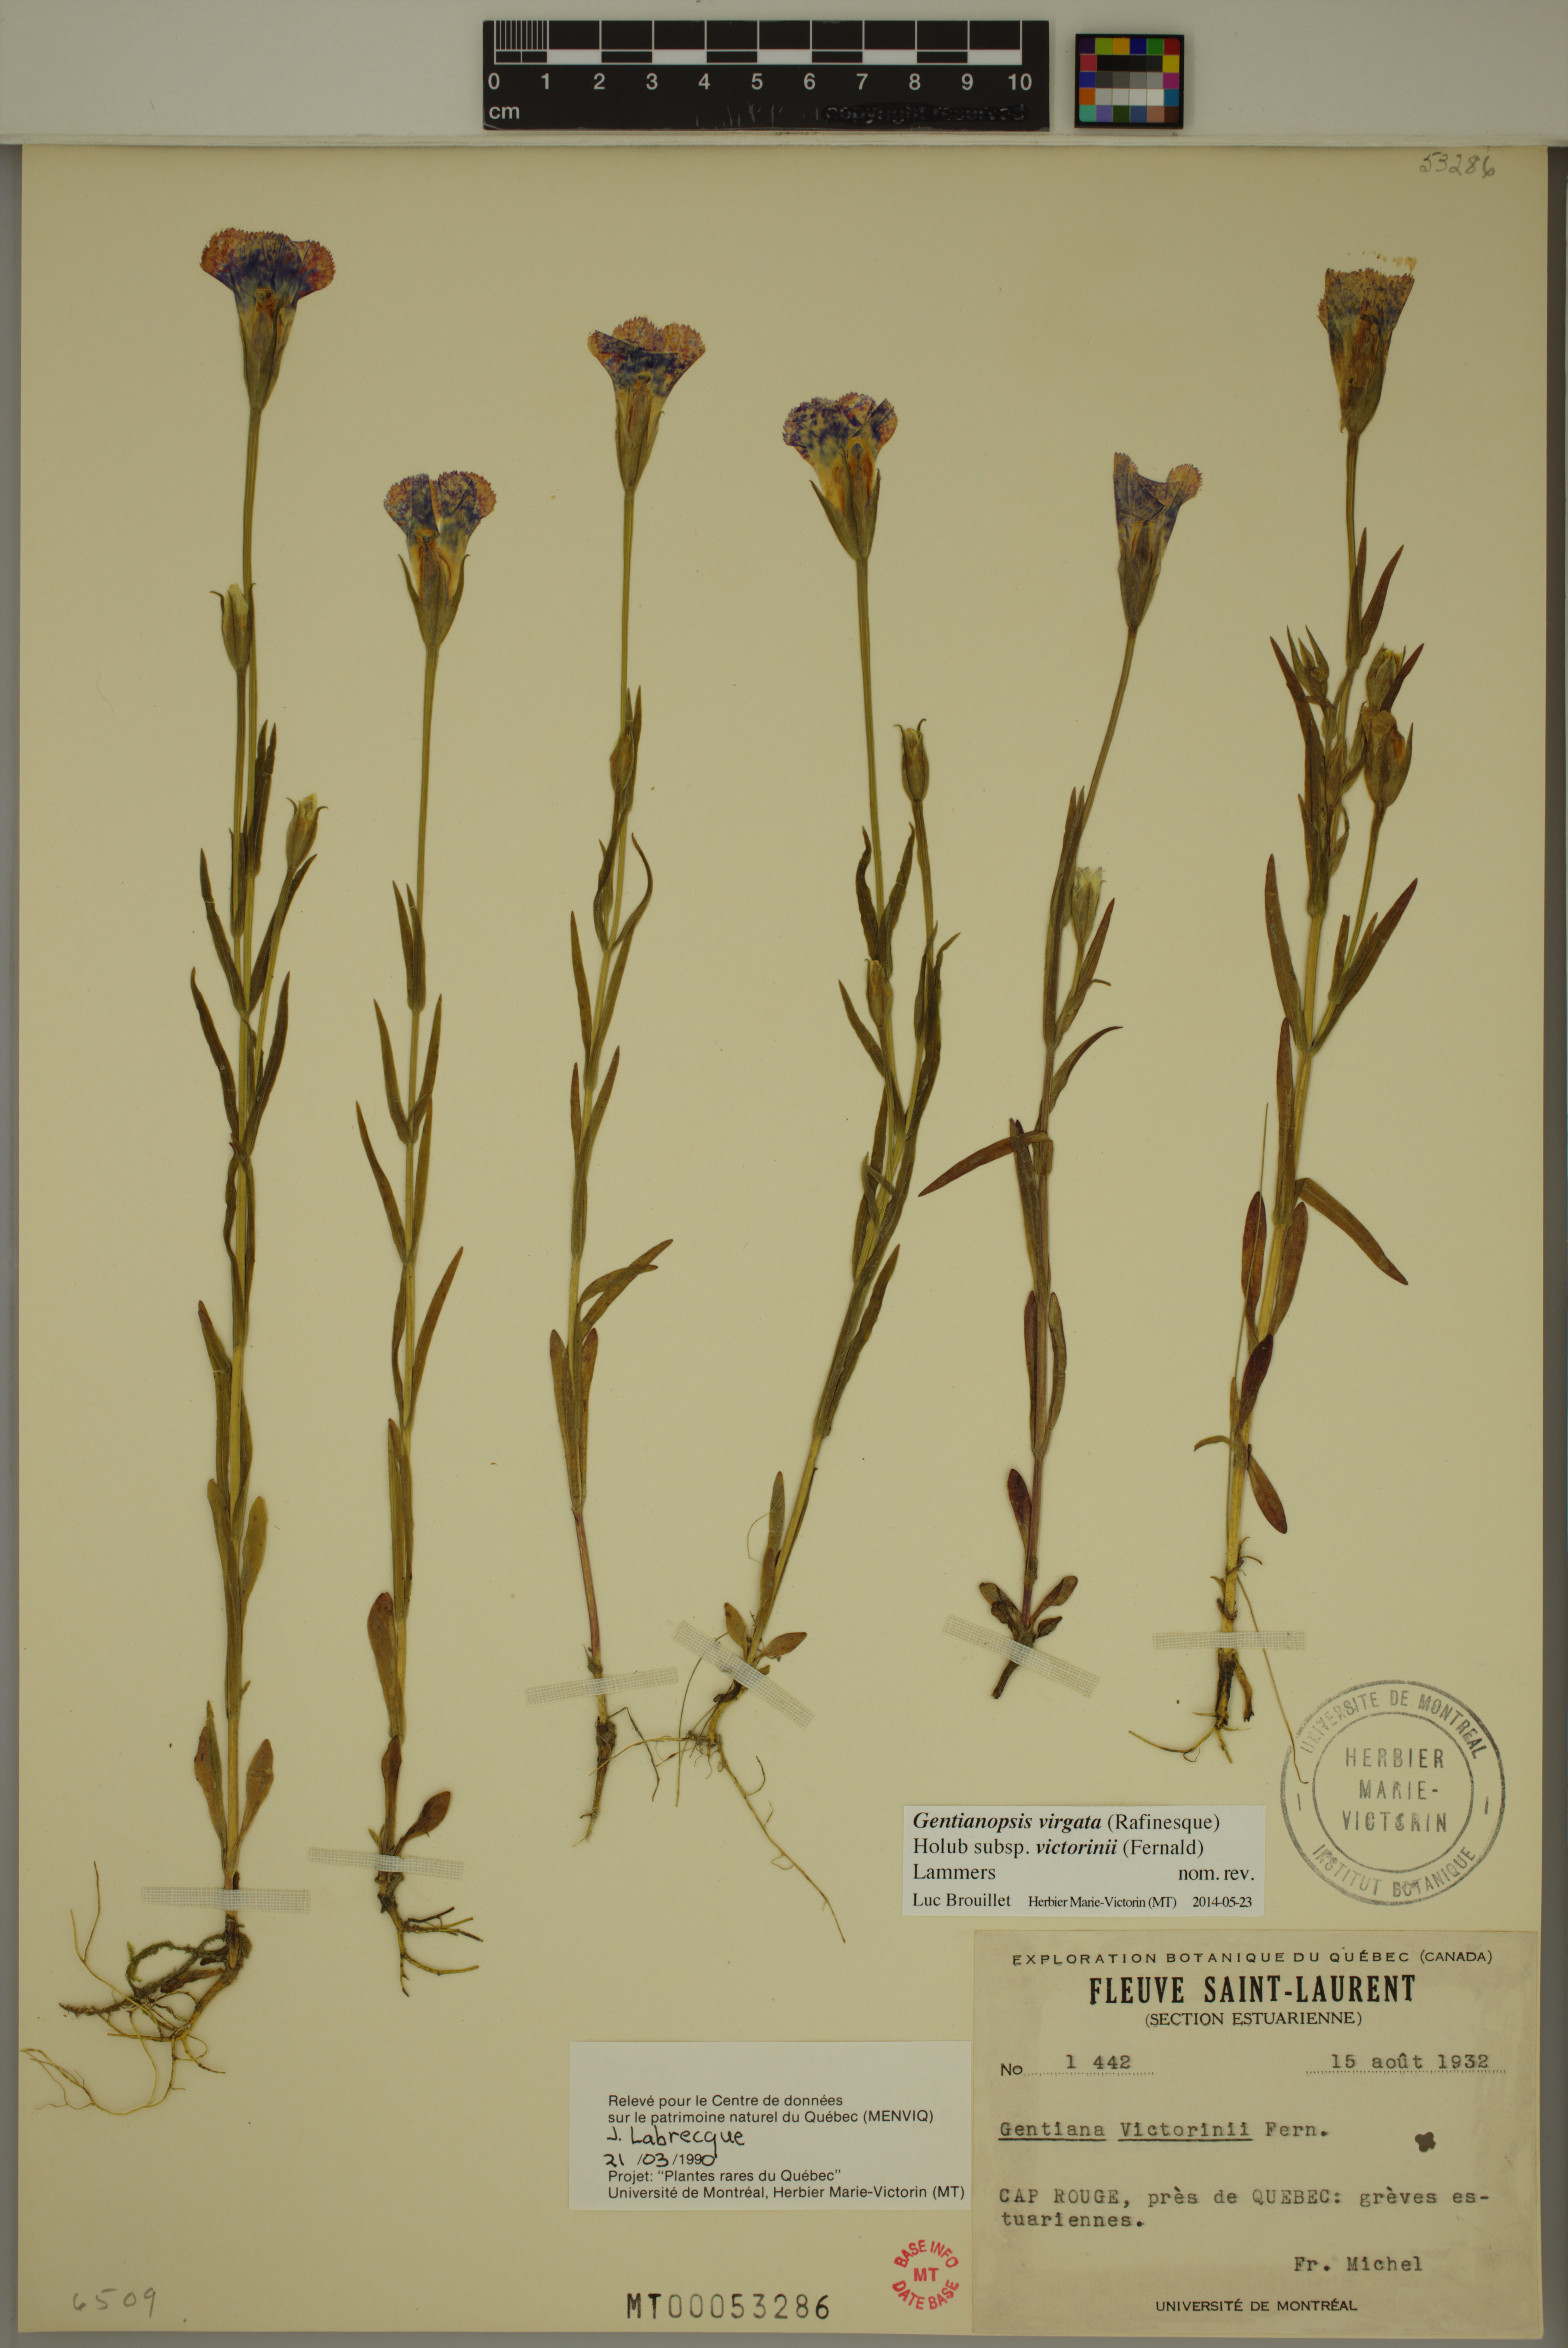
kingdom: Plantae
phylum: Tracheophyta
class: Magnoliopsida
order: Gentianales
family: Gentianaceae
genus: Gentianopsis
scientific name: Gentianopsis victorinii
